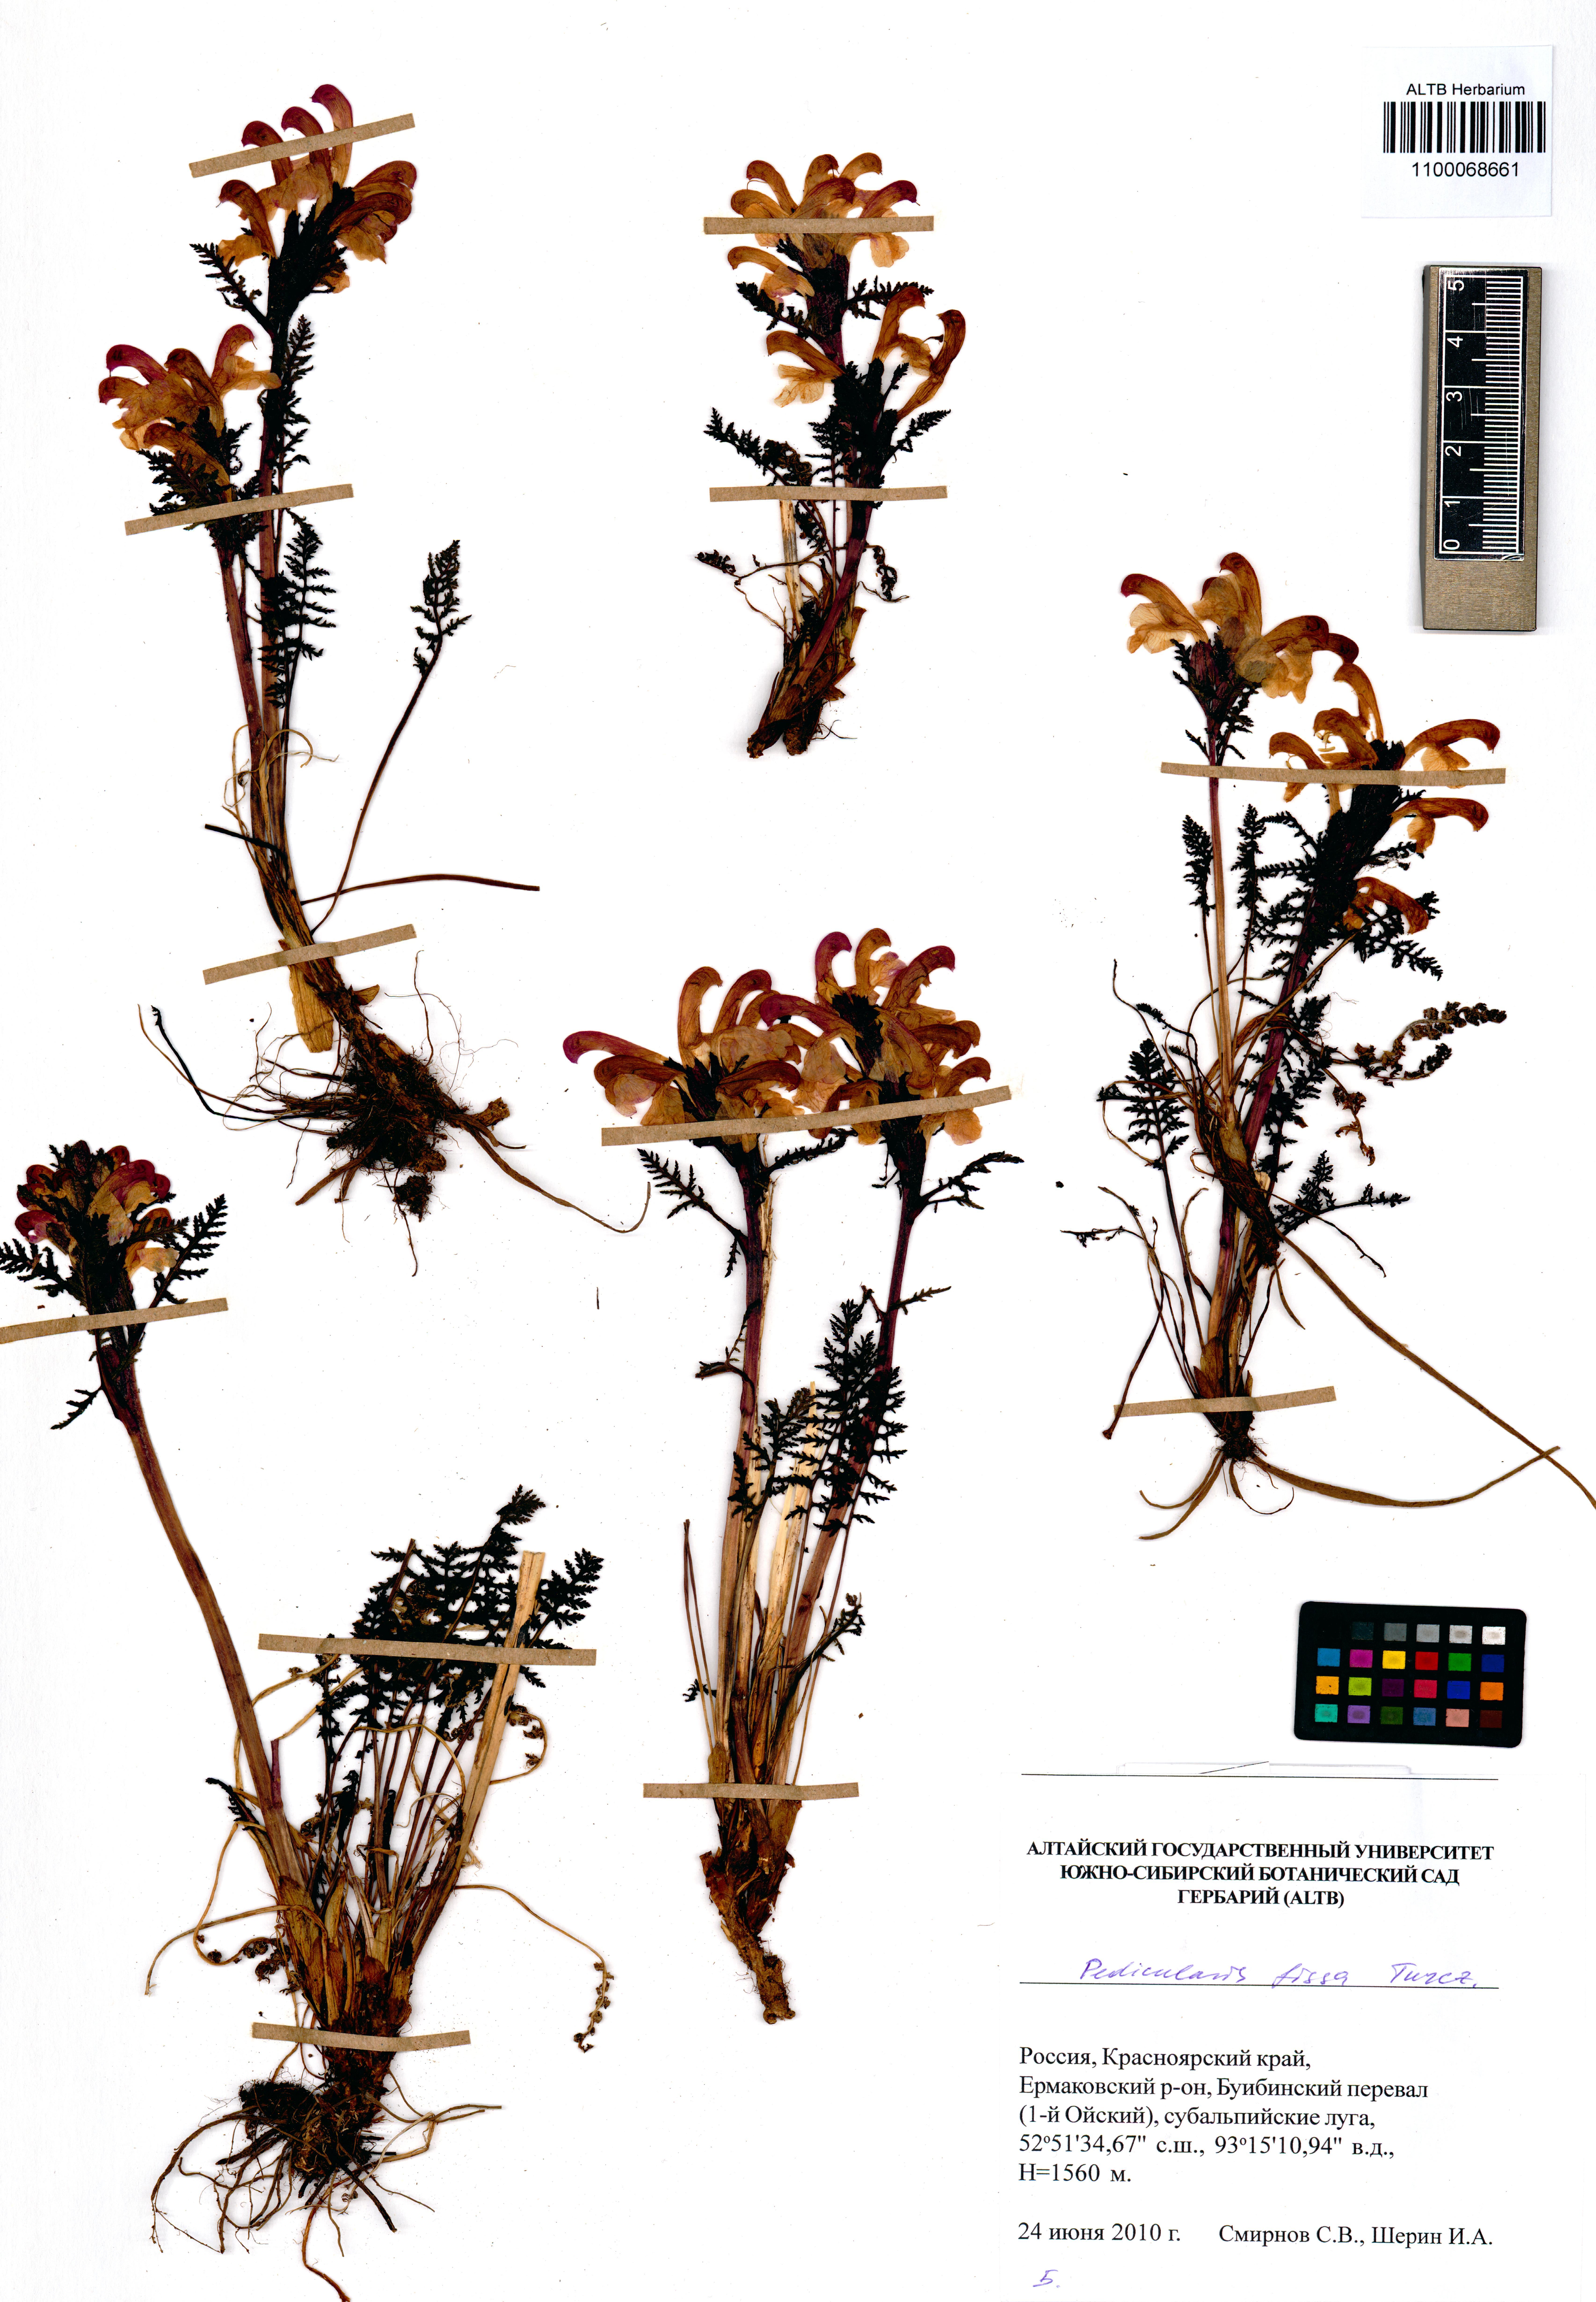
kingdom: Plantae
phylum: Tracheophyta
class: Magnoliopsida
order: Lamiales
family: Orobanchaceae
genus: Pedicularis
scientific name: Pedicularis fissa
